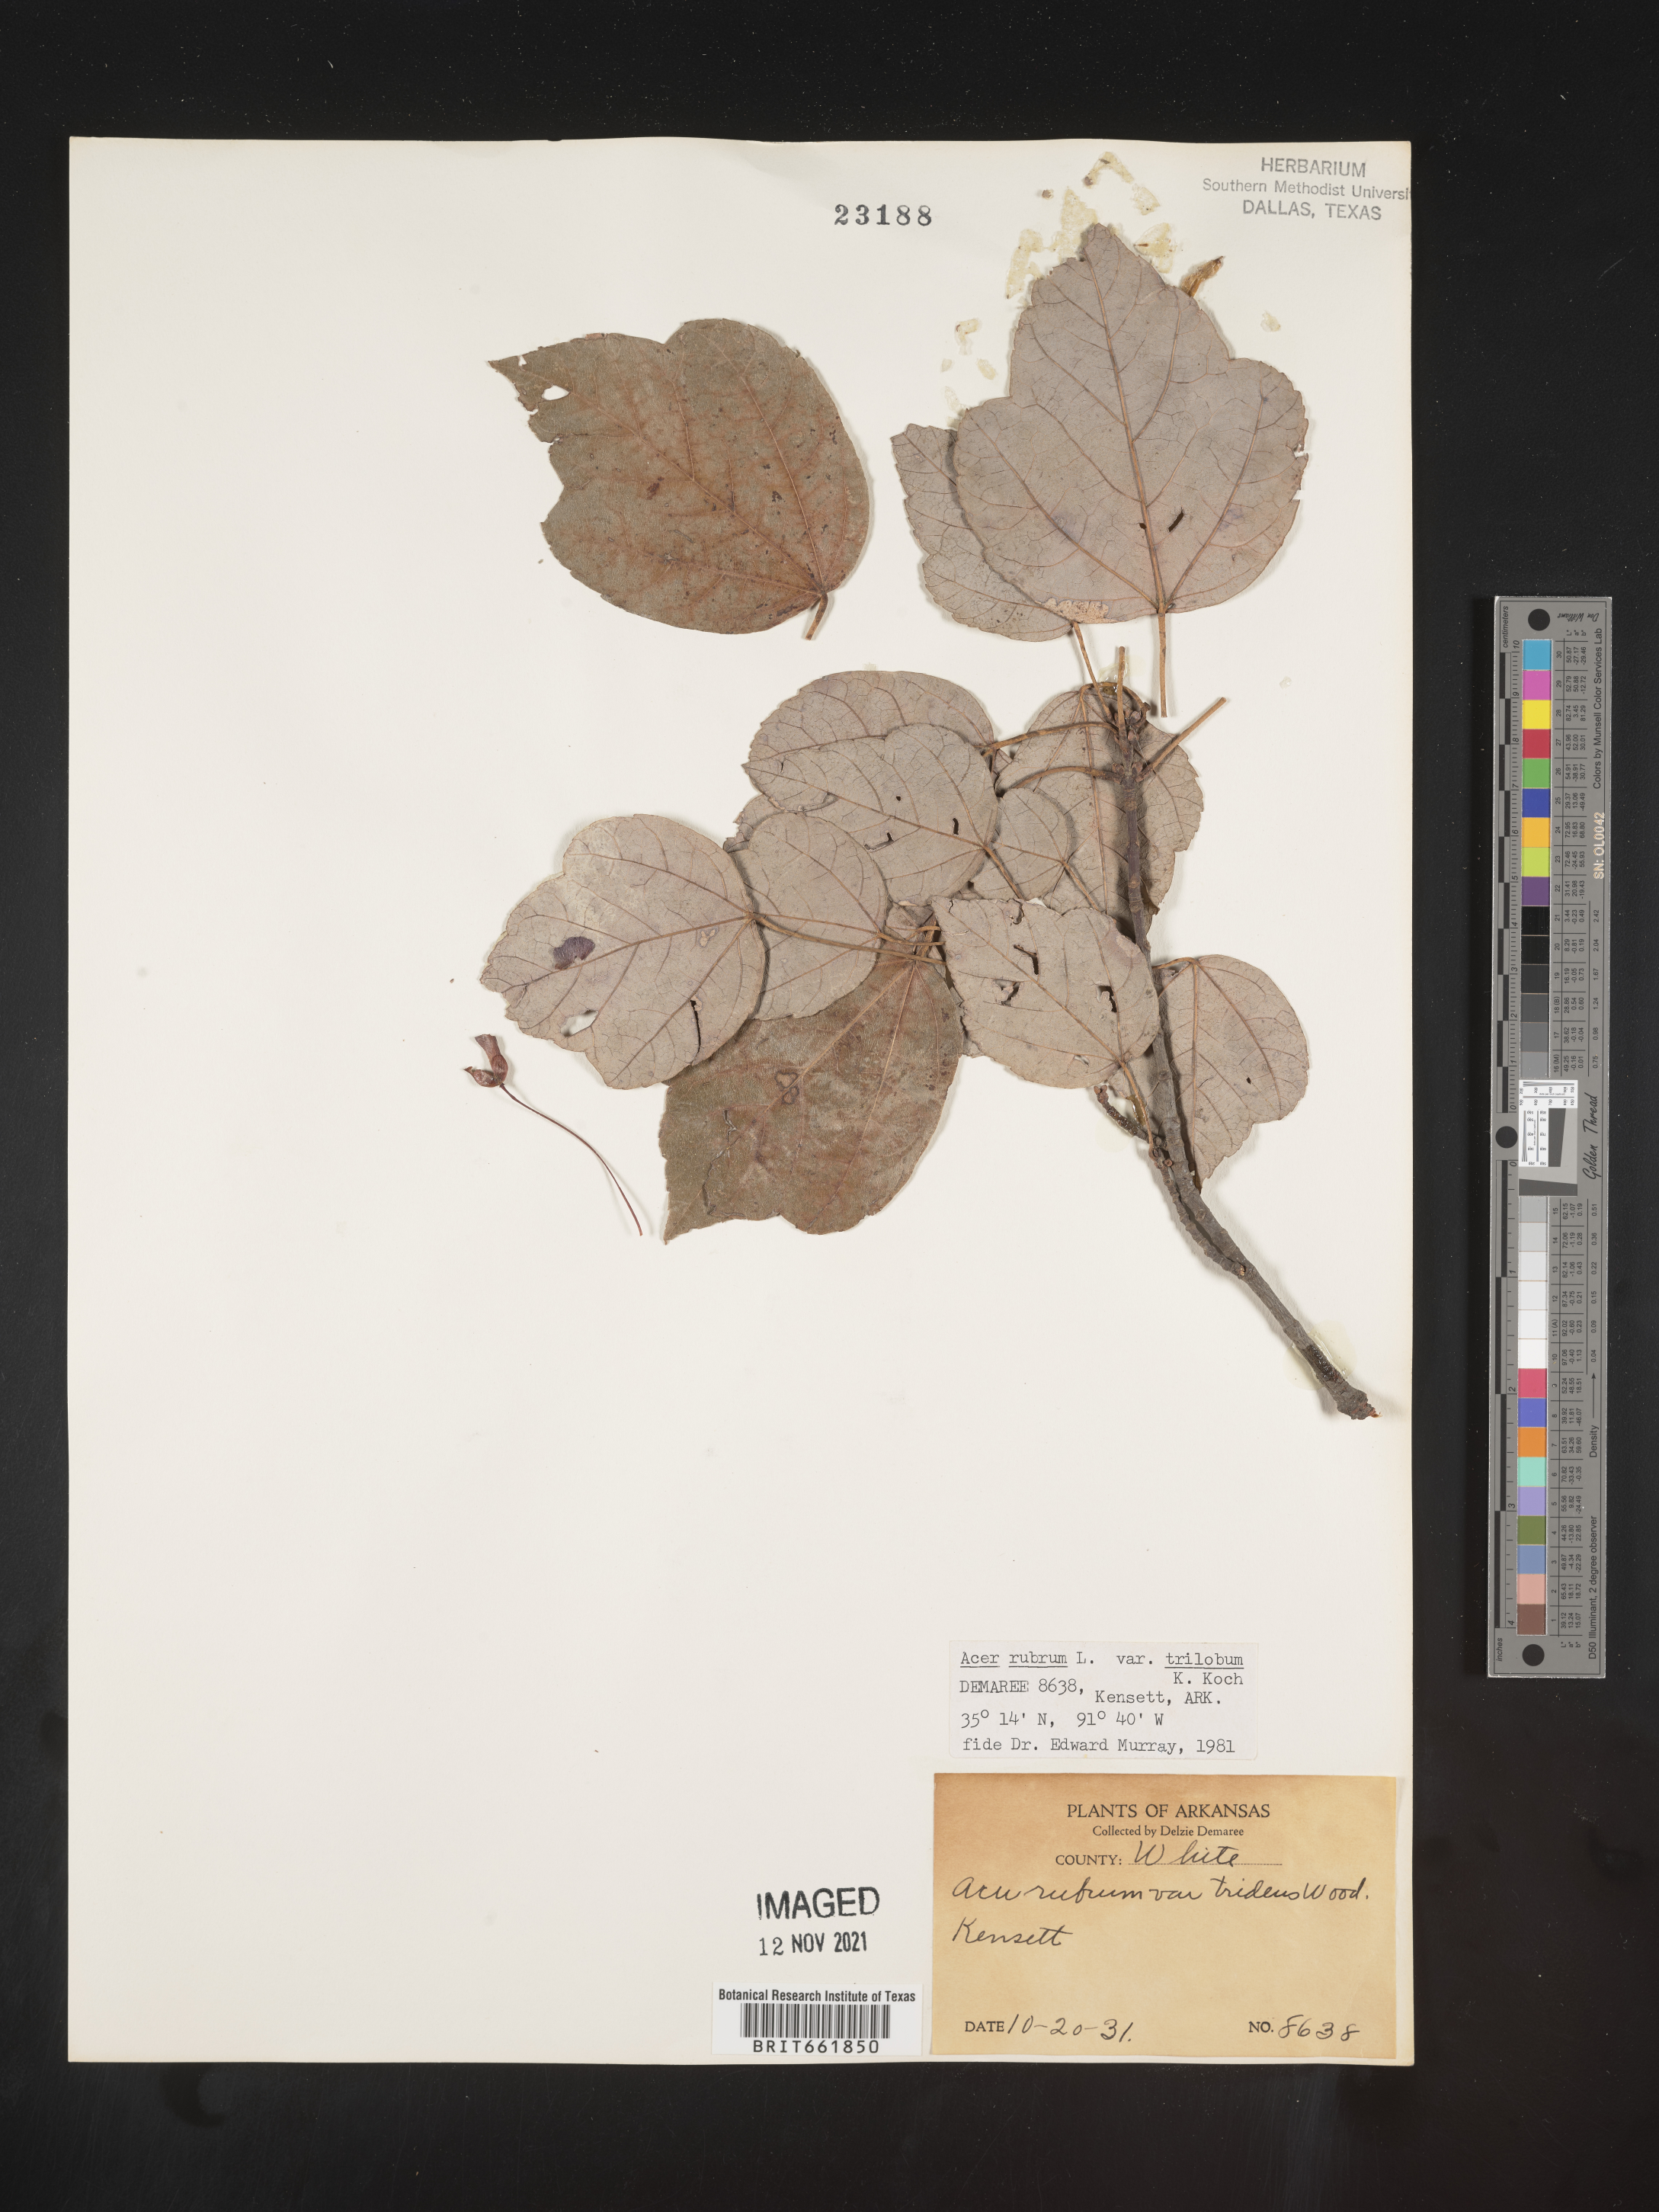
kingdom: Plantae
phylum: Tracheophyta
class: Magnoliopsida
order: Sapindales
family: Sapindaceae
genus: Acer
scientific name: Acer rubrum
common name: Red maple
